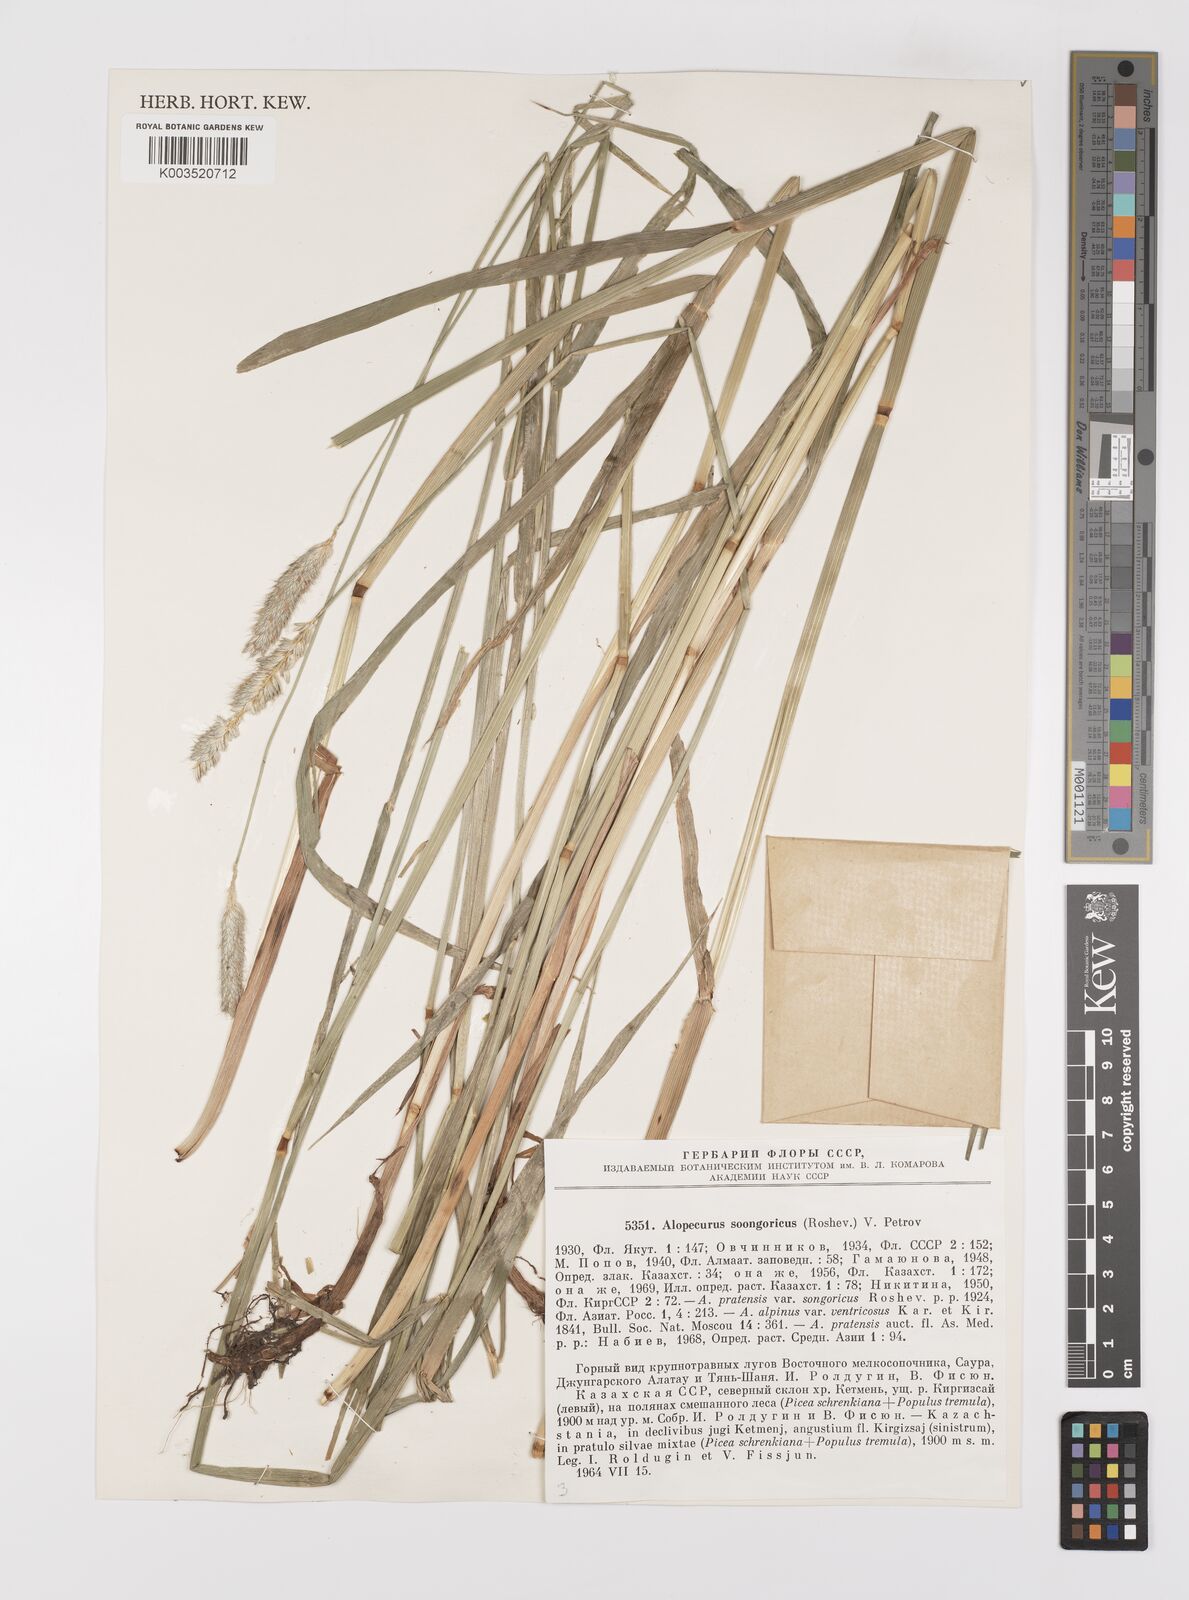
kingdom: Plantae
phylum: Tracheophyta
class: Liliopsida
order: Poales
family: Poaceae
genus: Alopecurus
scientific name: Alopecurus pratensis
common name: Meadow foxtail
